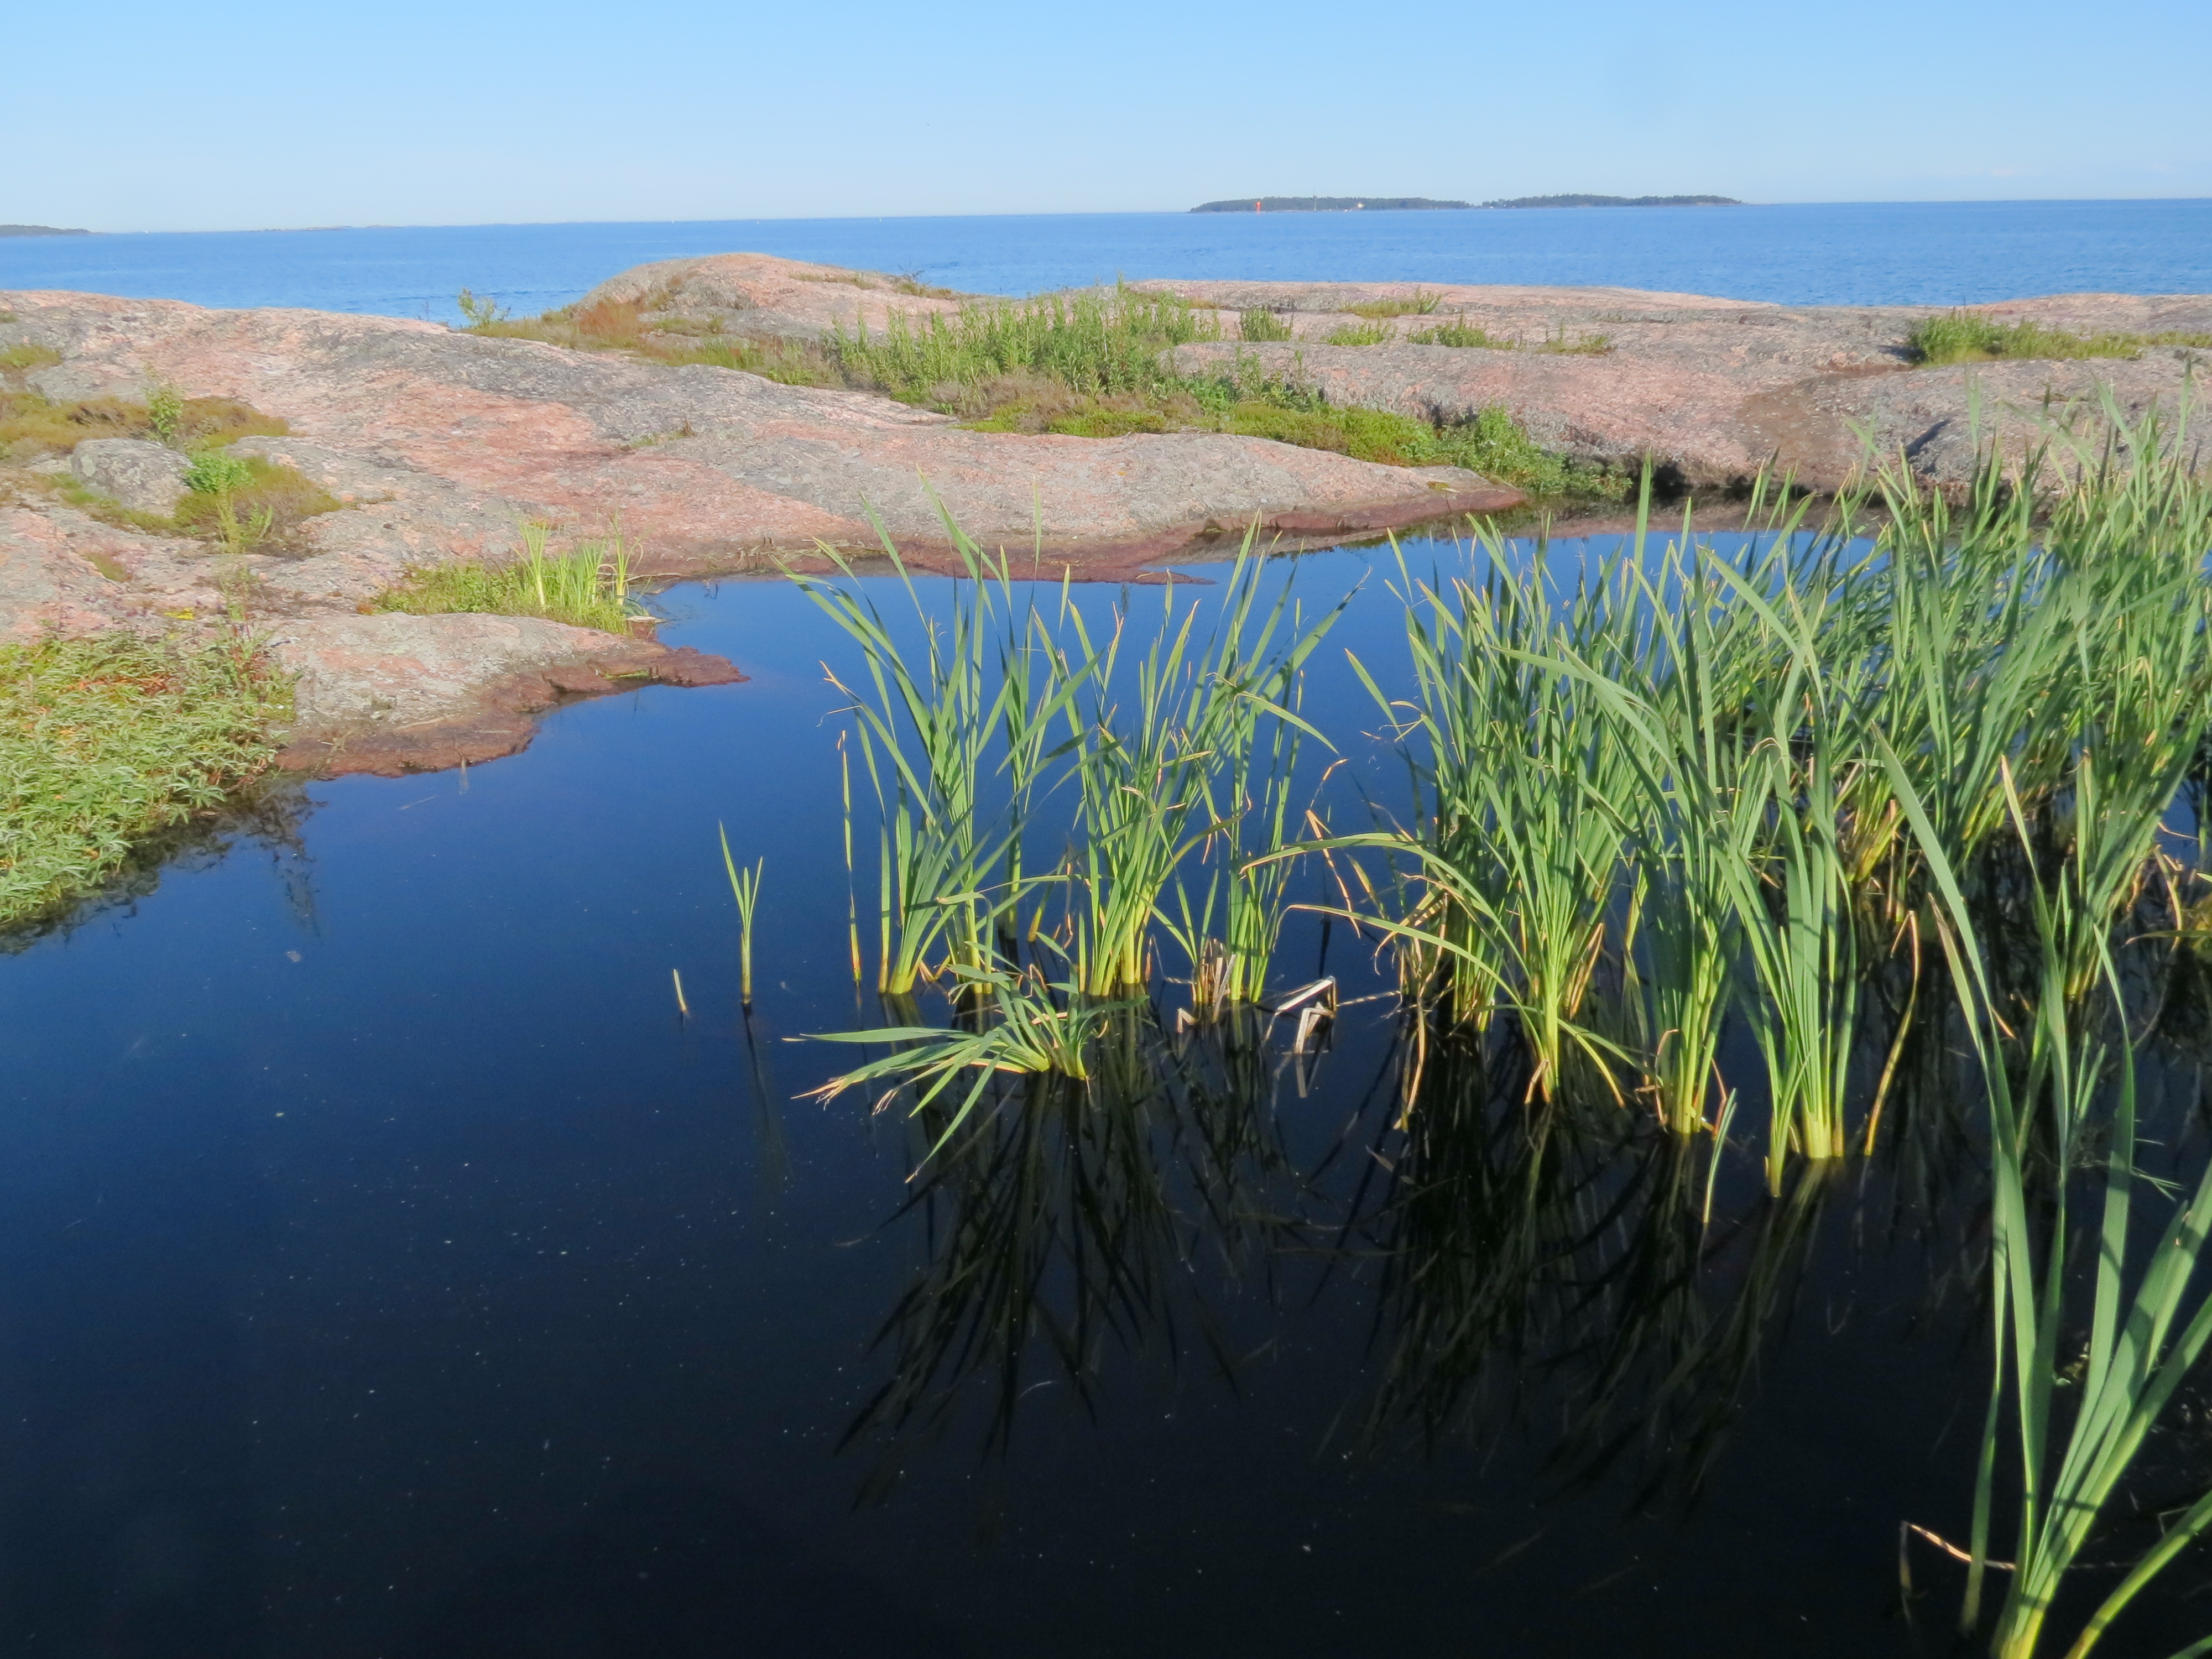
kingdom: Animalia
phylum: Chordata
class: Amphibia
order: Caudata
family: Salamandridae
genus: Lissotriton
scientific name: Lissotriton vulgaris
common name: Smooth newt
